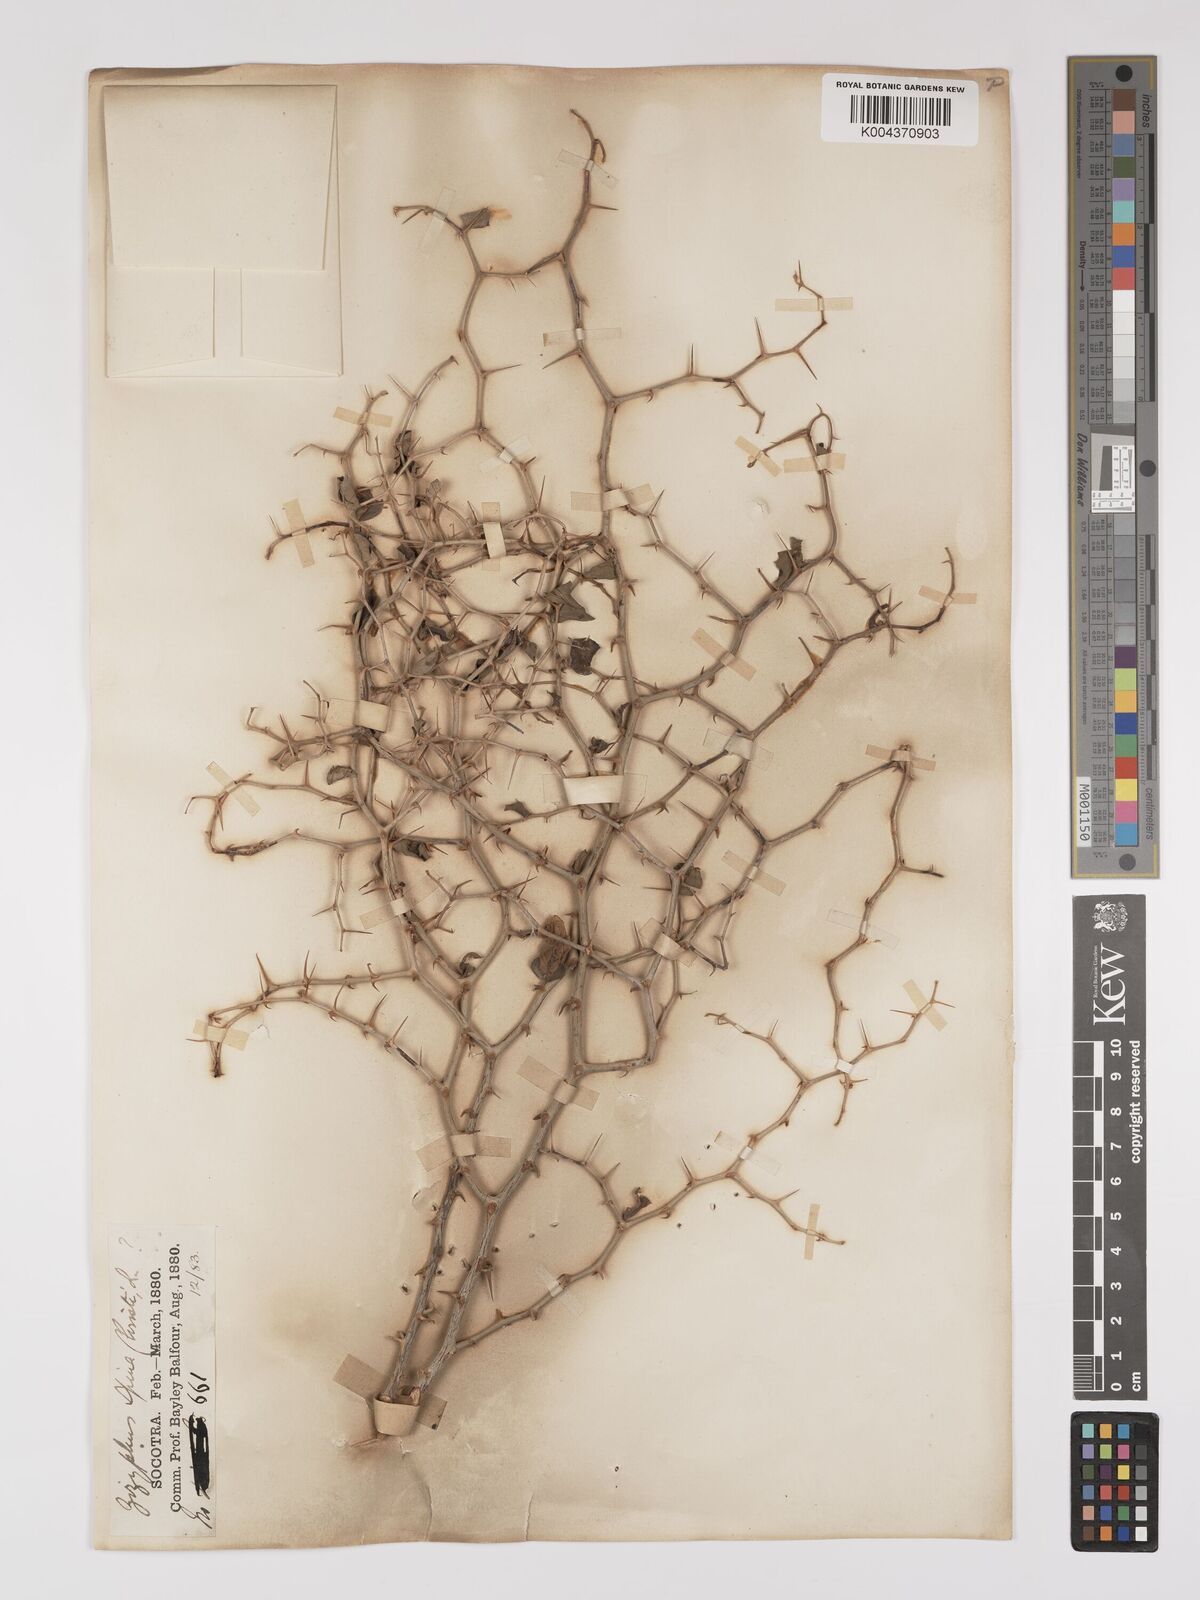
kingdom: Plantae
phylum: Tracheophyta
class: Magnoliopsida
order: Rosales
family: Rhamnaceae
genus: Ziziphus
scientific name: Ziziphus spina-christi
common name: Syrian christ-thorn
